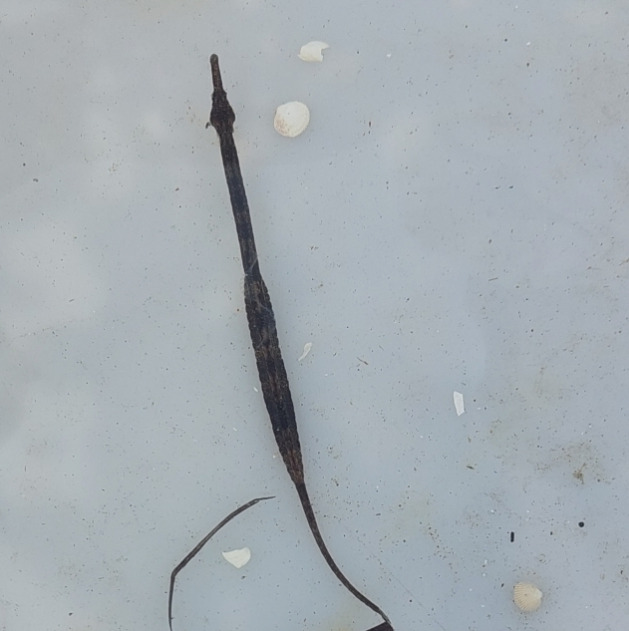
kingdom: Animalia
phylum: Chordata
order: Syngnathiformes
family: Syngnathidae
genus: Syngnathus
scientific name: Syngnathus rostellatus
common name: Lille tangnål
